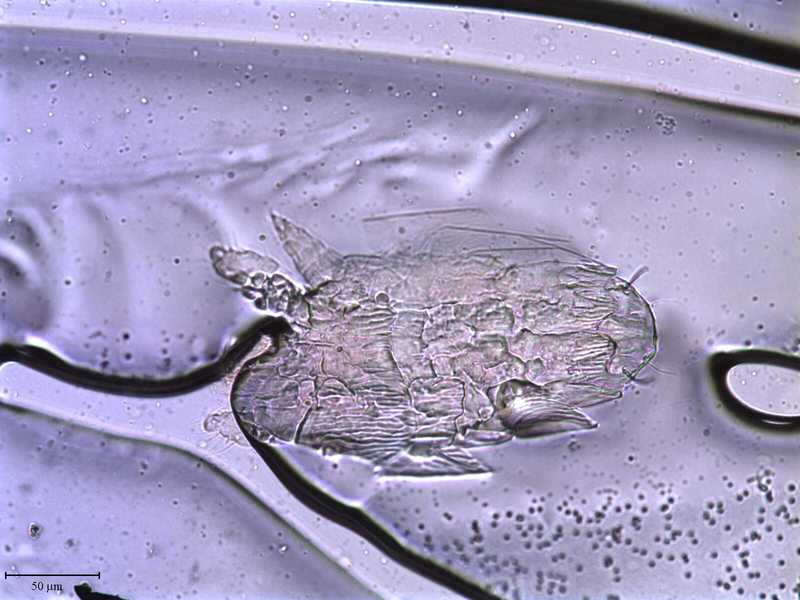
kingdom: Animalia
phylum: Arthropoda
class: Arachnida
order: Trombidiformes
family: Tarsonemidae
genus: Pseudotarsonemoides
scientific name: Pseudotarsonemoides eccoptogasteris
